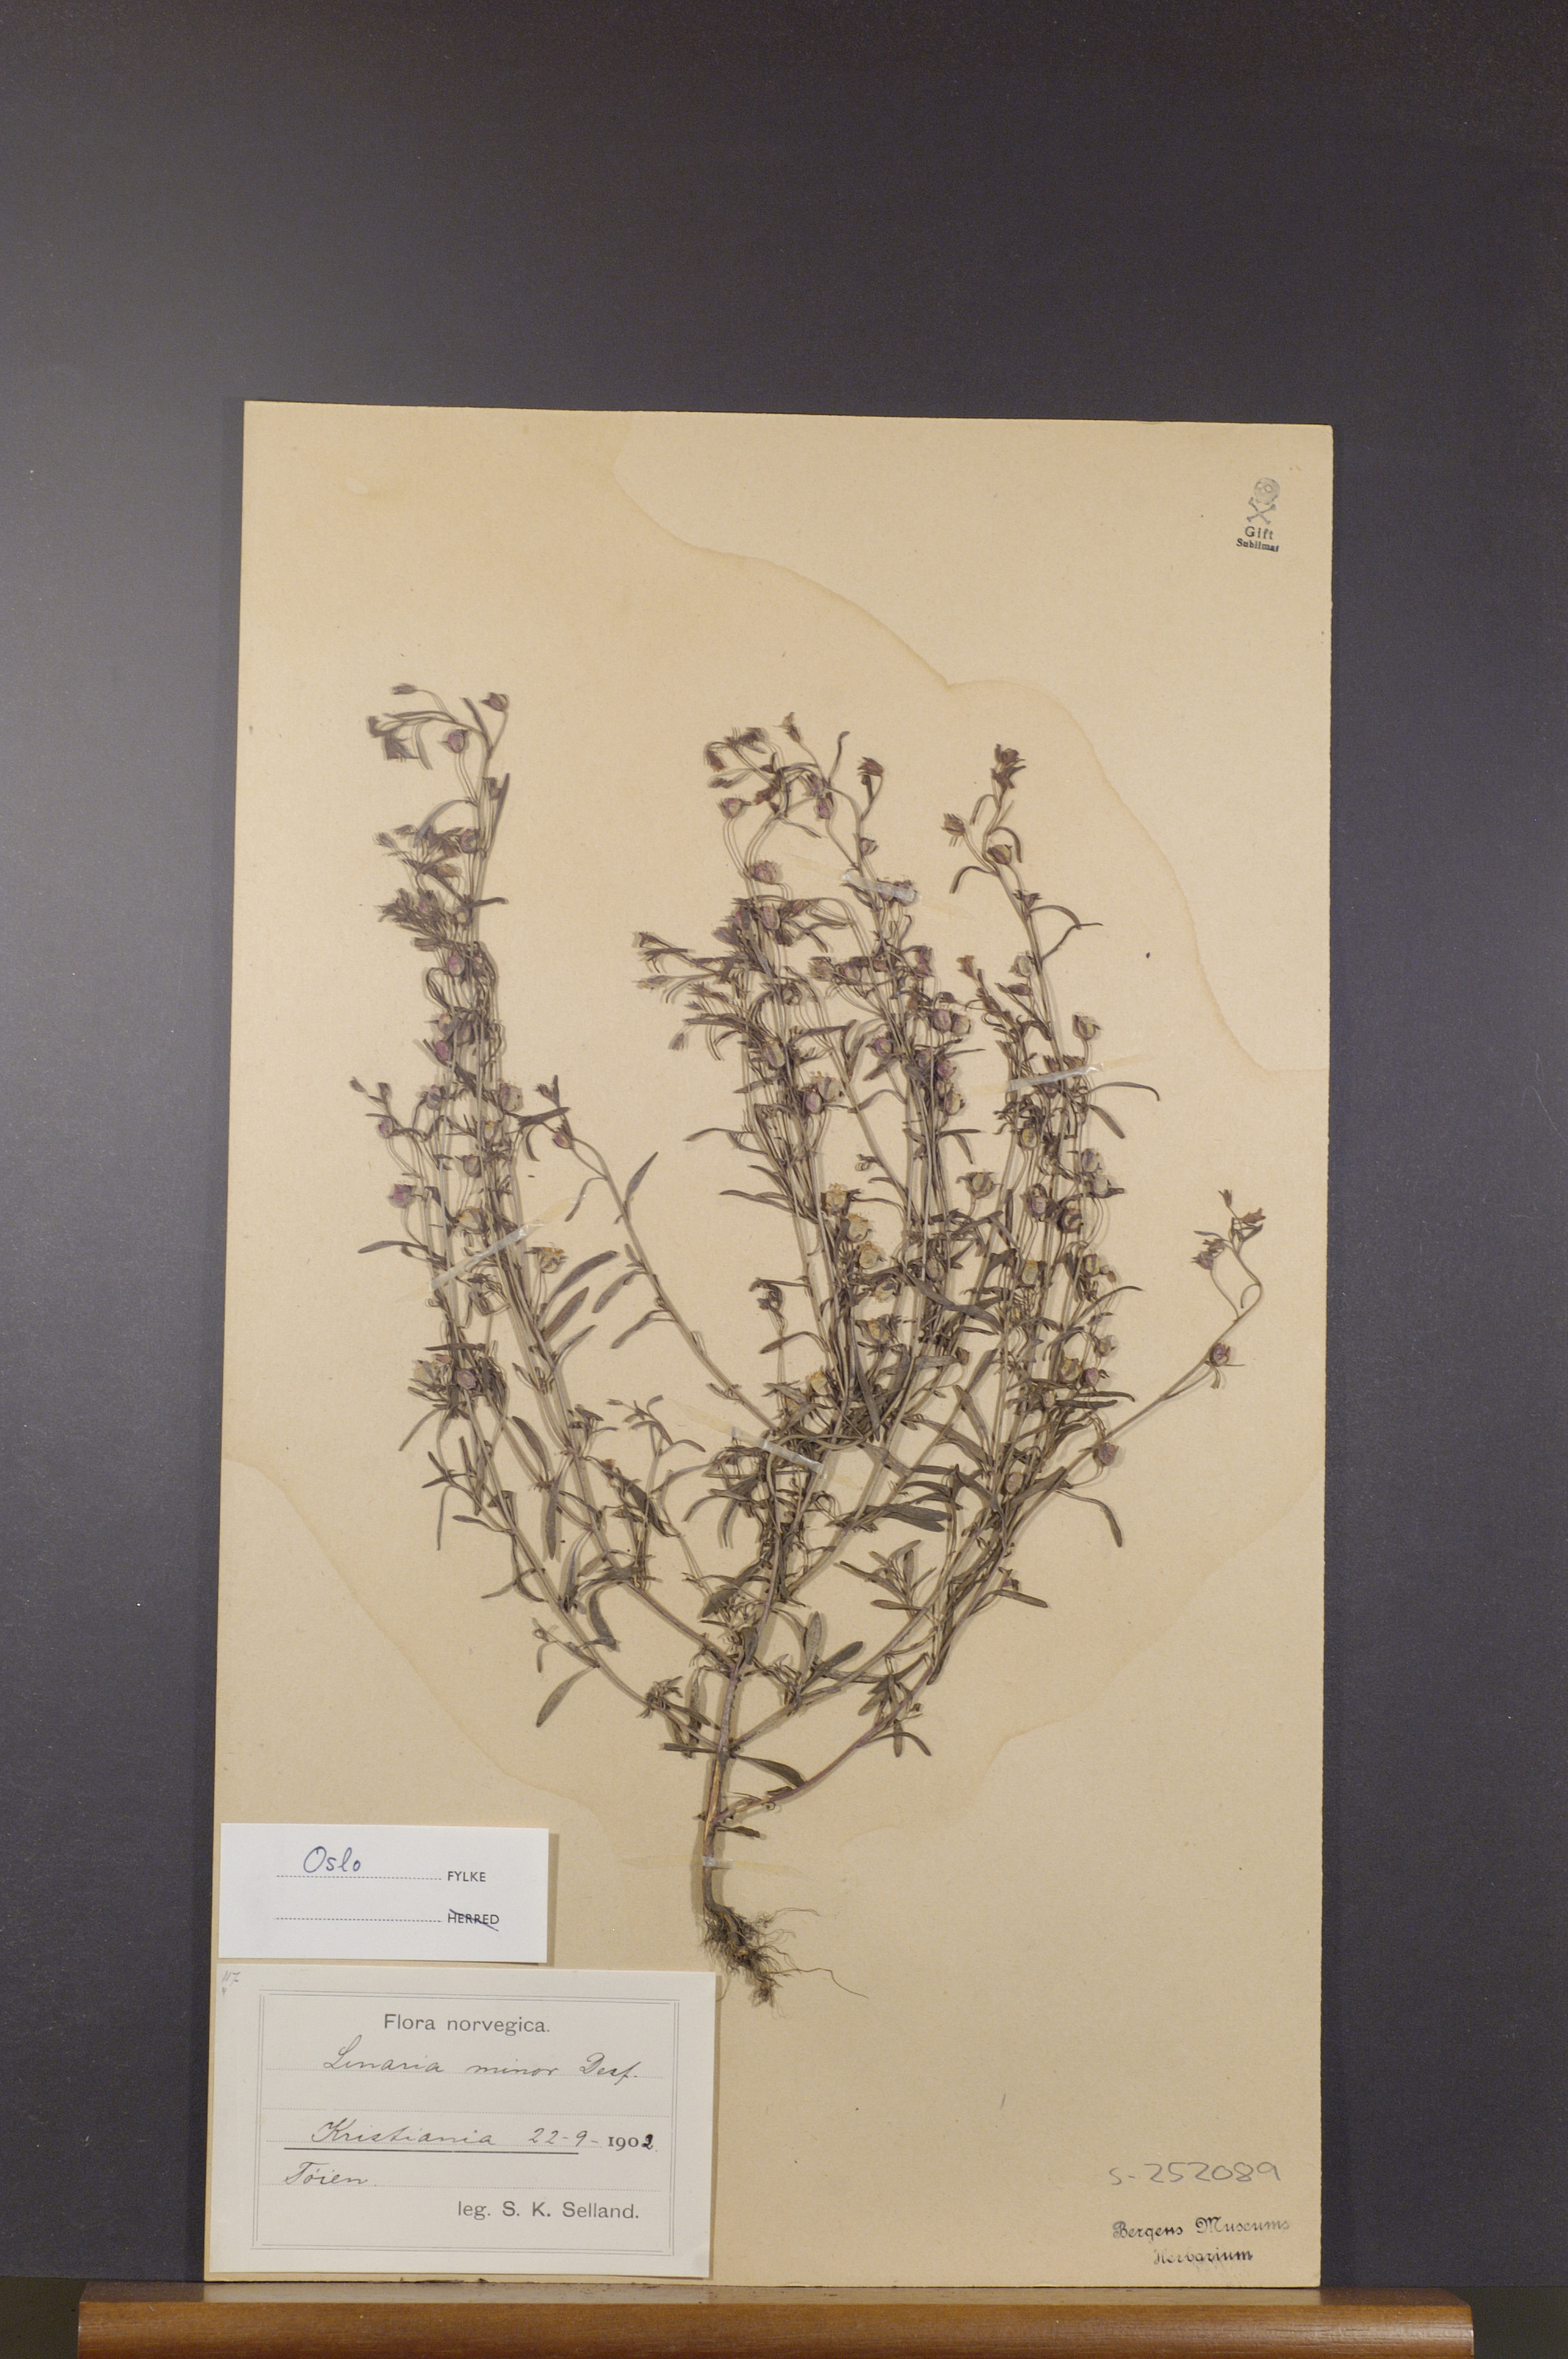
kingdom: Plantae
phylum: Tracheophyta
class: Magnoliopsida
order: Lamiales
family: Plantaginaceae
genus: Chaenorhinum
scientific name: Chaenorhinum minus
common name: Dwarf snapdragon
